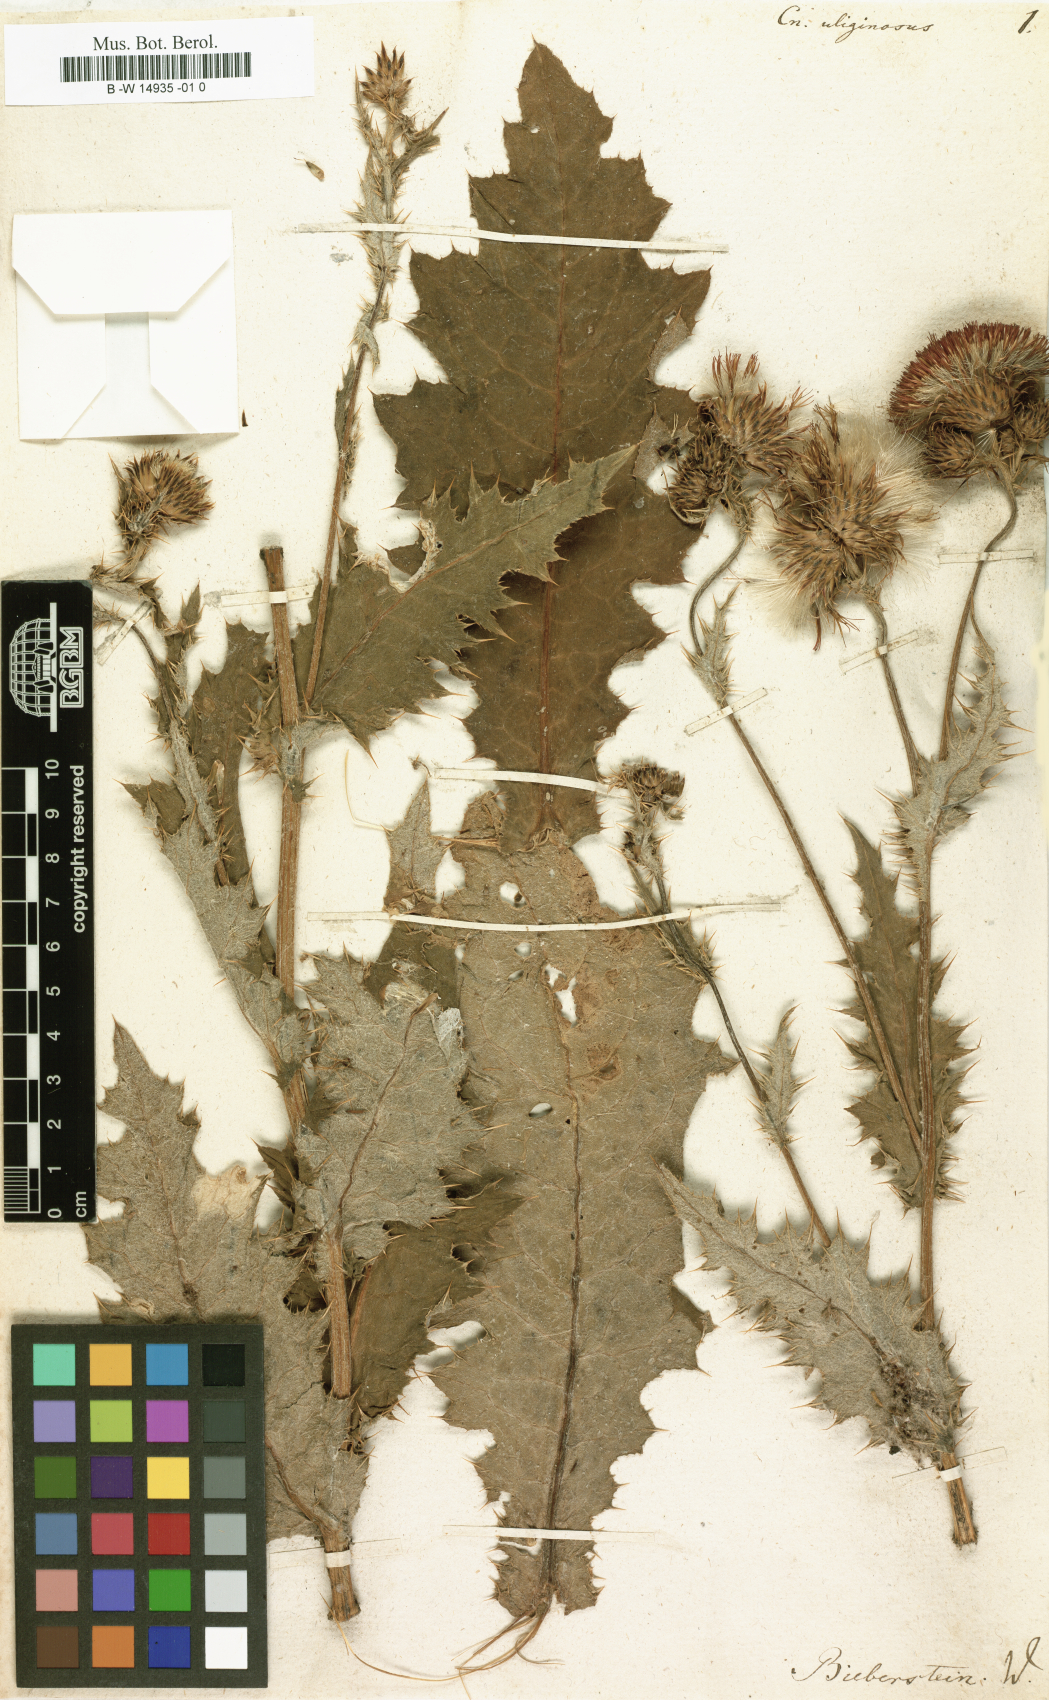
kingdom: Plantae
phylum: Tracheophyta
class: Magnoliopsida
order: Asterales
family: Asteraceae
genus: Cirsium
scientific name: Cirsium uliginosum
